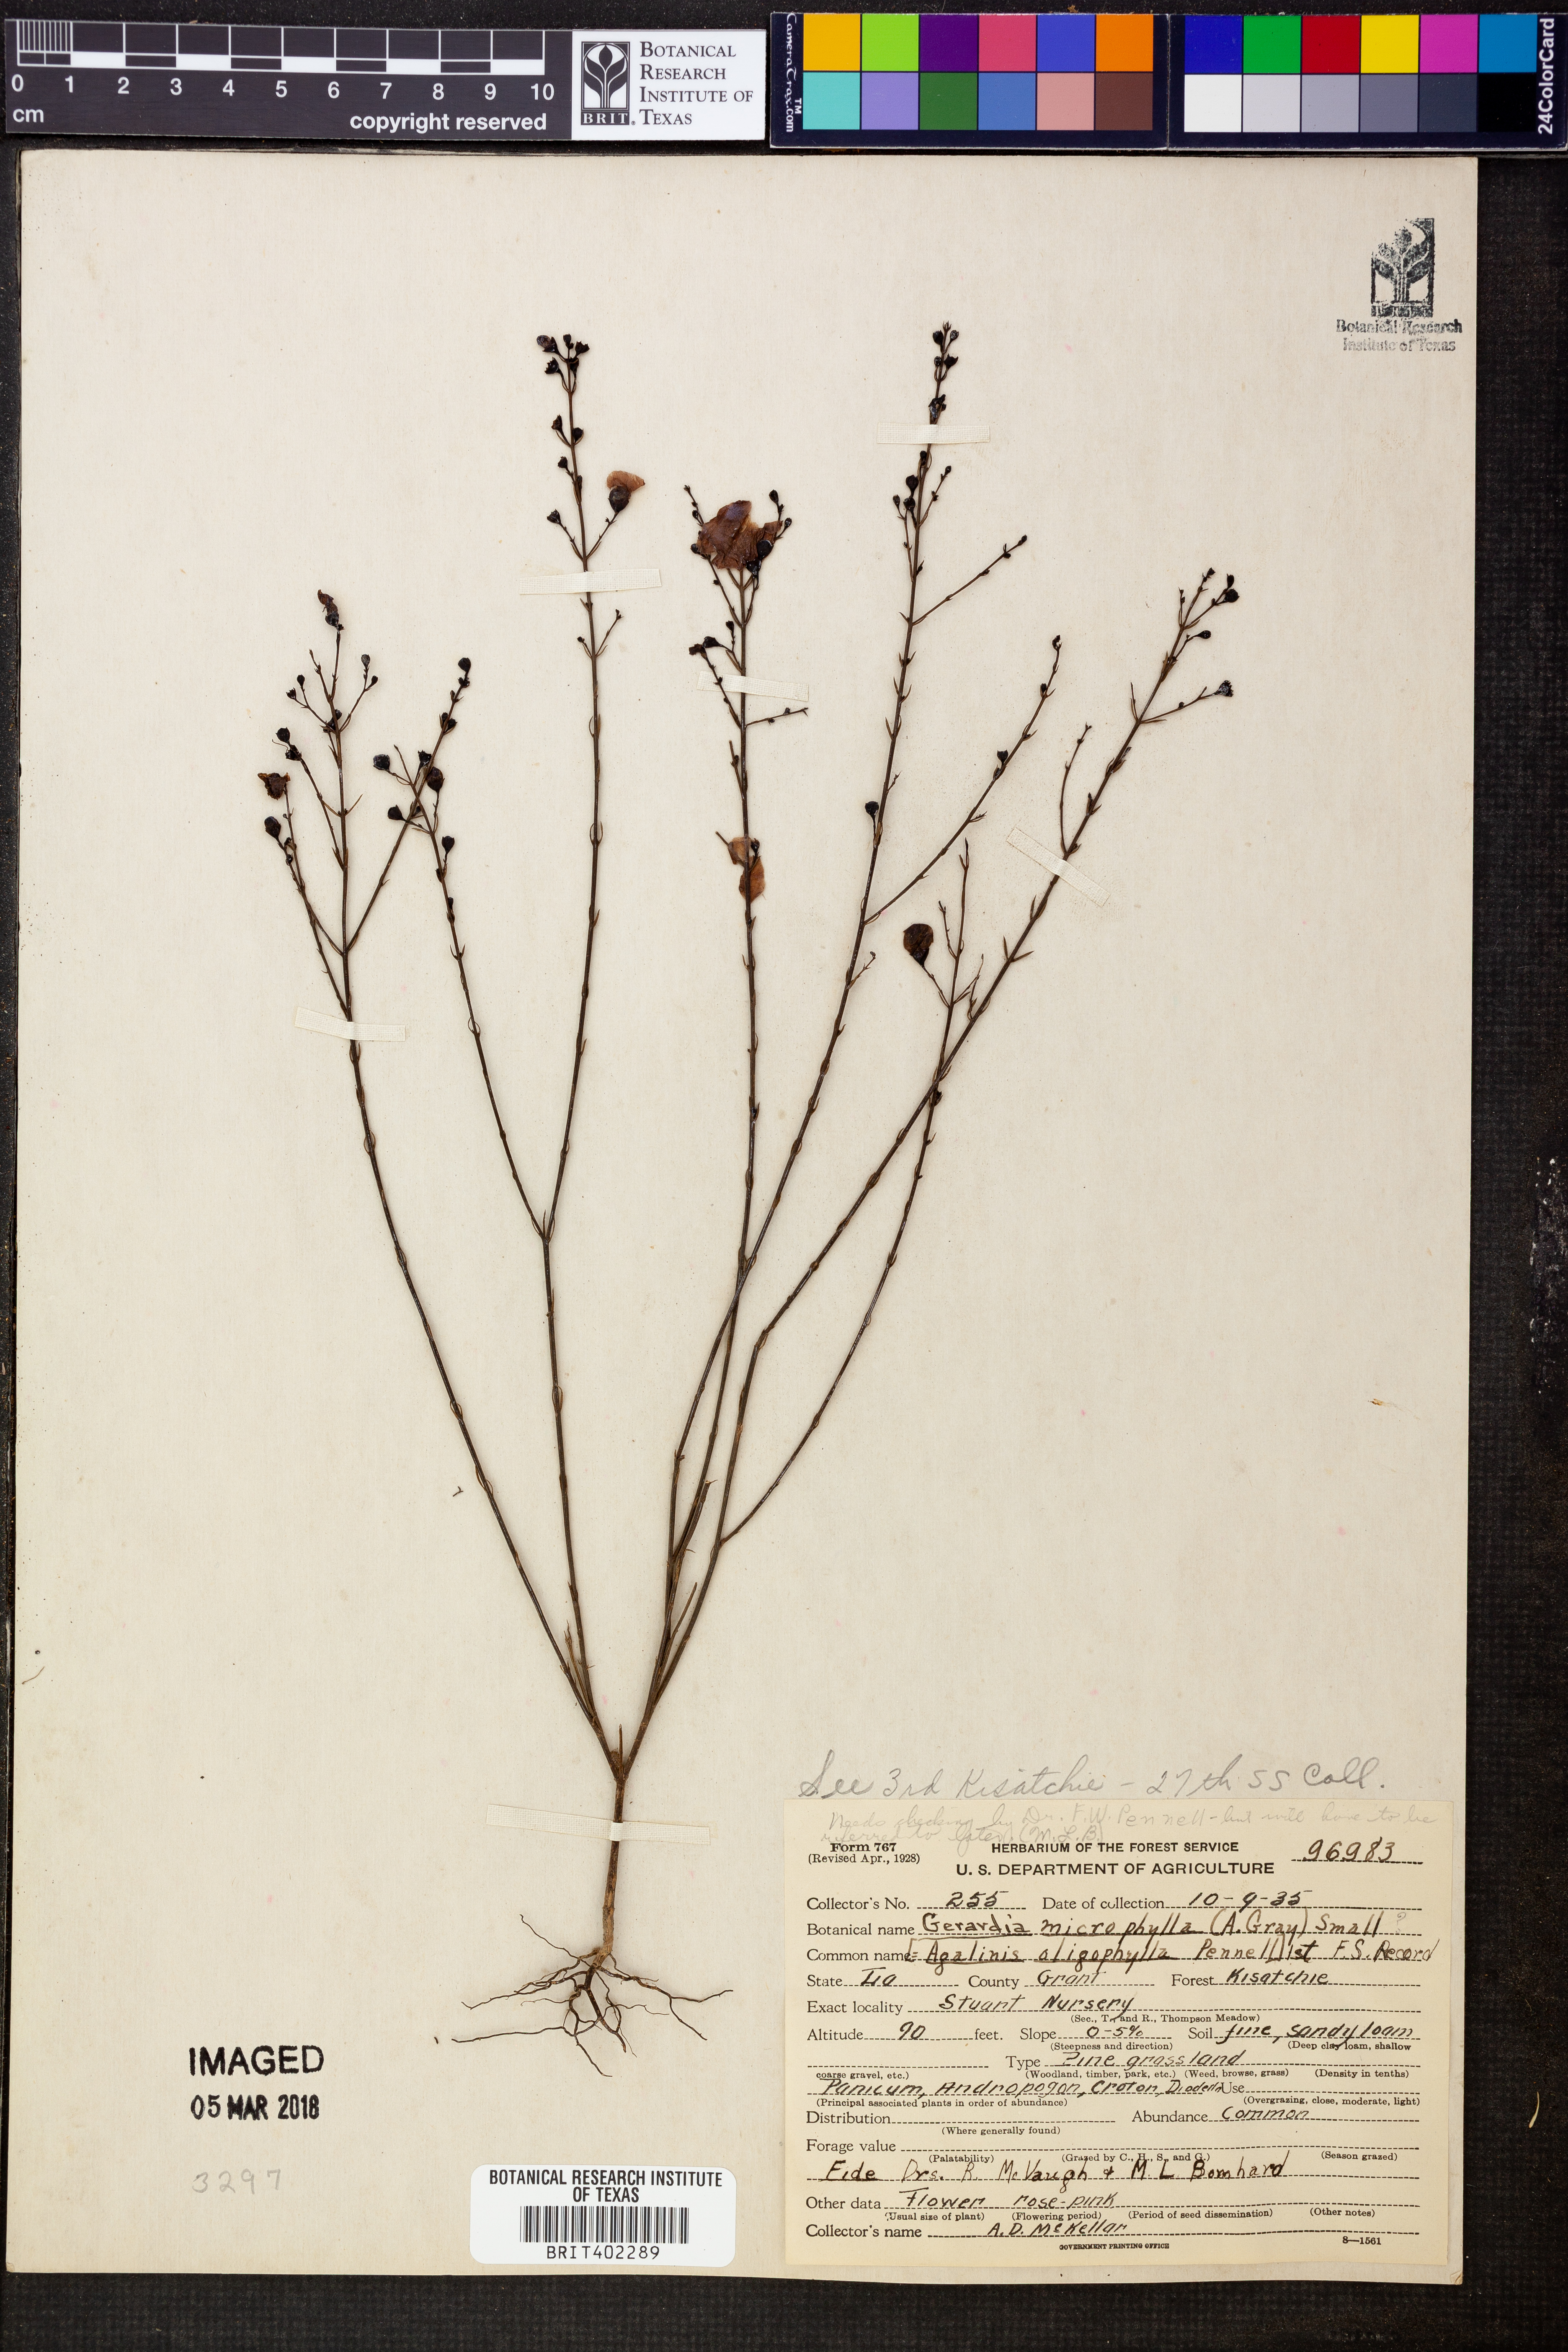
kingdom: Plantae
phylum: Tracheophyta
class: Magnoliopsida
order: Lamiales
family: Orobanchaceae
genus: Agalinis
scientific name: Agalinis oligophylla
